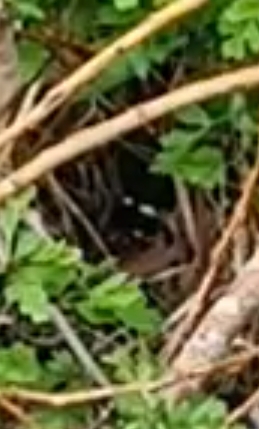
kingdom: Animalia
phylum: Chordata
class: Squamata
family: Colubridae
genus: Natrix
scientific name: Natrix natrix
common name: Snog
